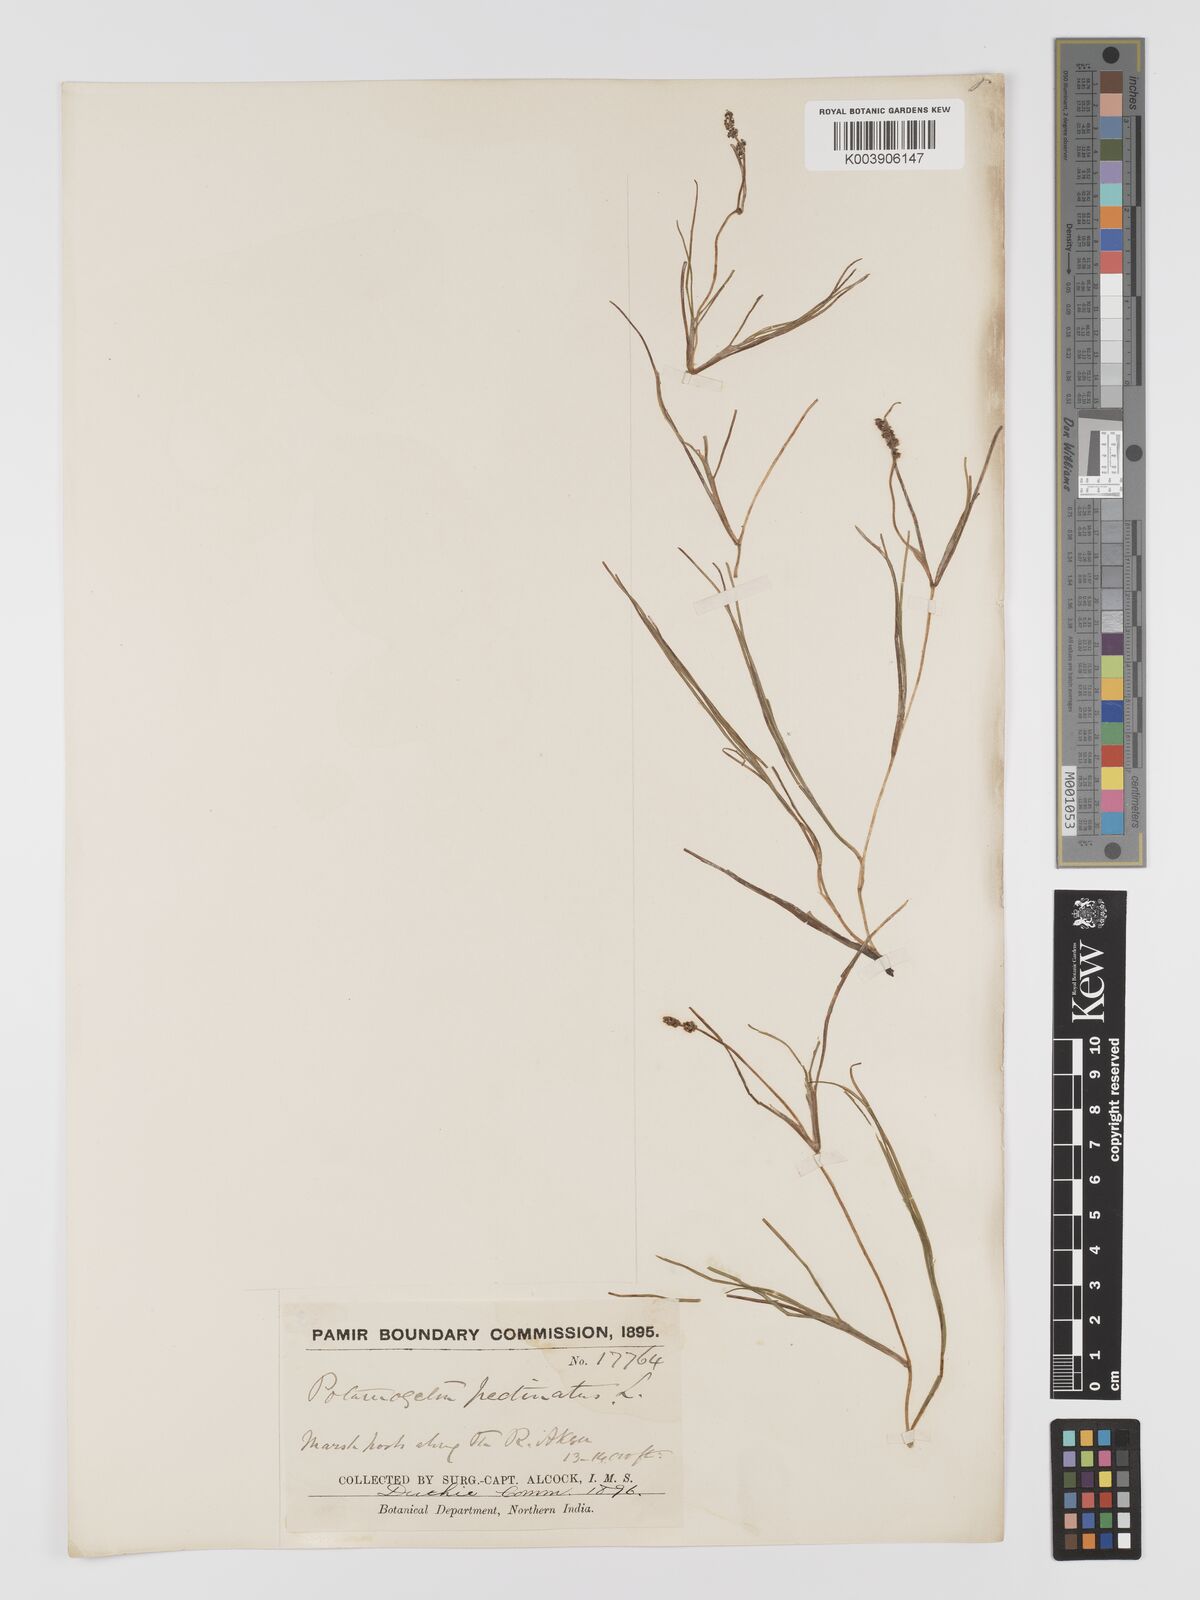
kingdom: Plantae
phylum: Tracheophyta
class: Liliopsida
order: Alismatales
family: Potamogetonaceae
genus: Stuckenia
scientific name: Stuckenia pectinata
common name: Sago pondweed
